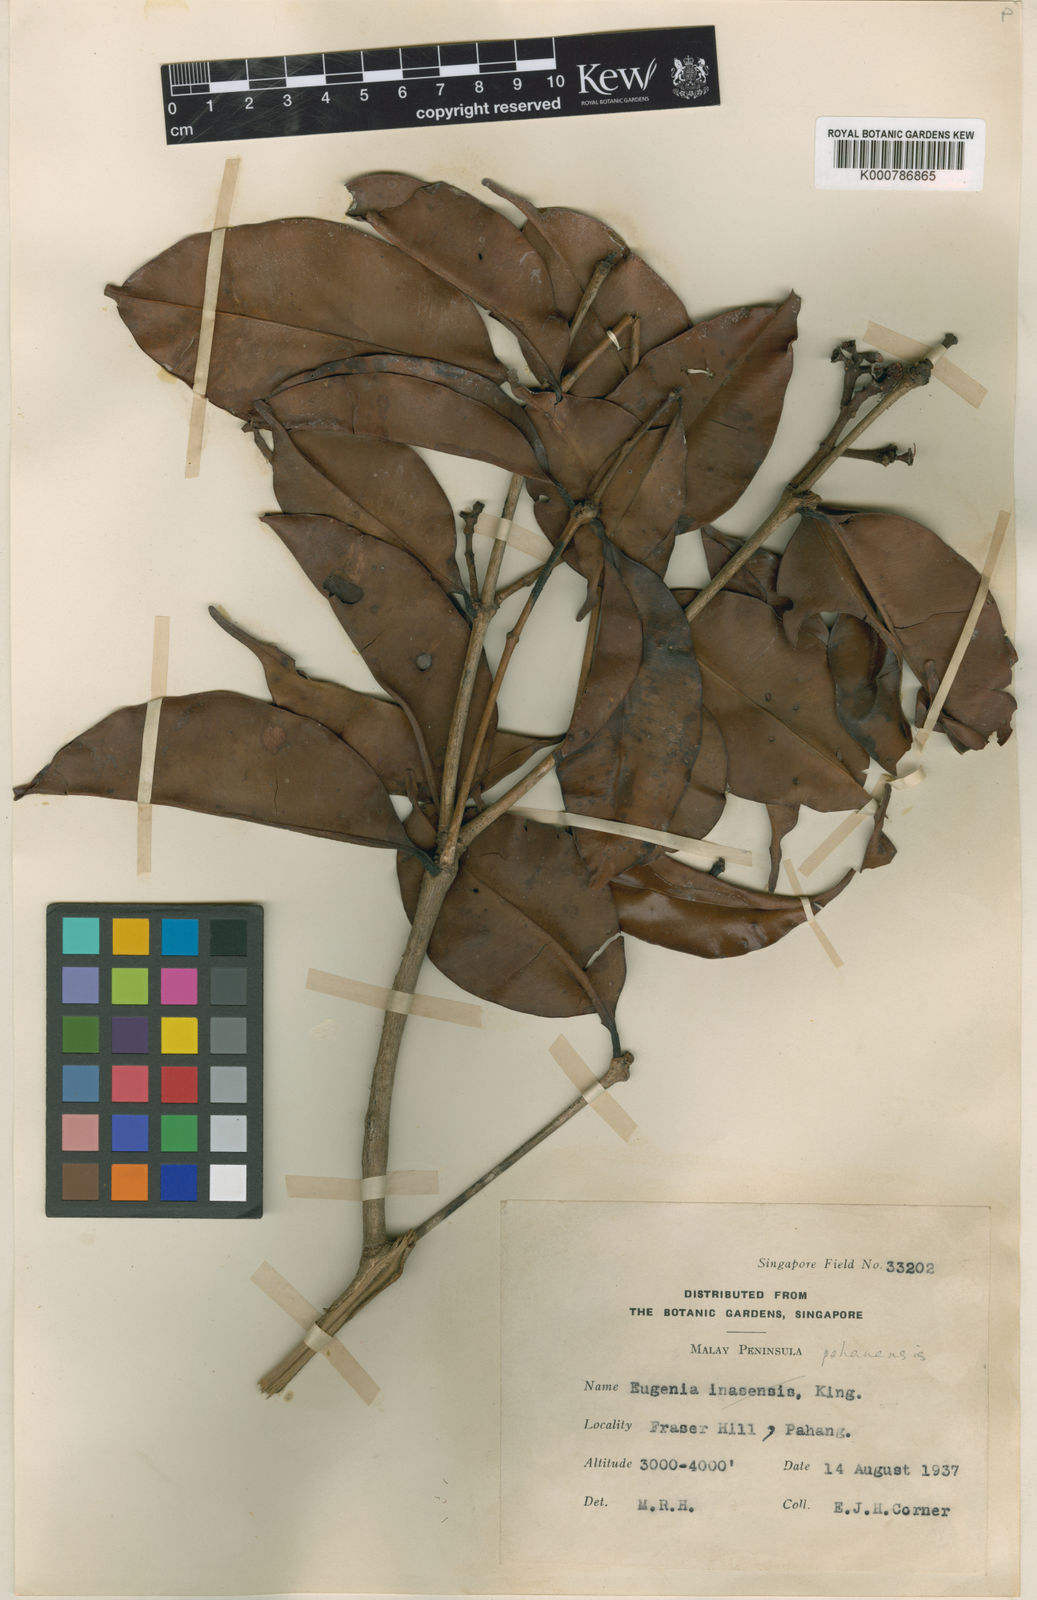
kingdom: Plantae
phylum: Tracheophyta
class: Magnoliopsida
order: Myrtales
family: Myrtaceae
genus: Syzygium
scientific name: Syzygium pahangense
